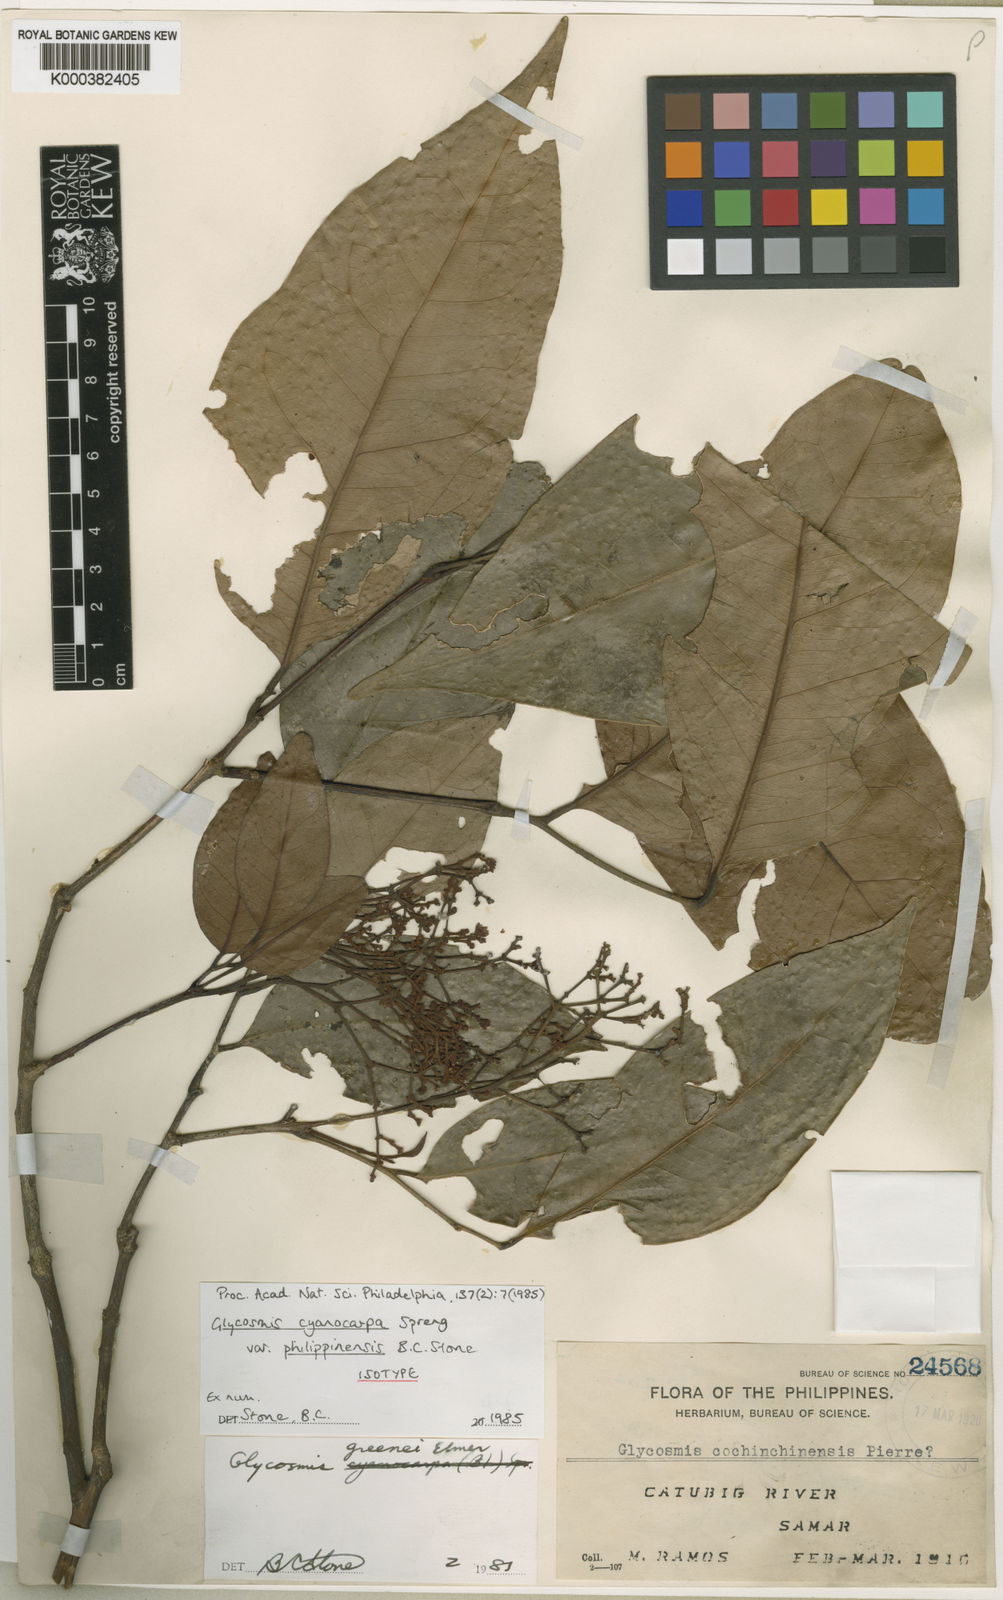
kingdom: Plantae
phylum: Tracheophyta
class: Magnoliopsida
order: Sapindales
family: Rutaceae
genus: Glycosmis
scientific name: Glycosmis greenei
